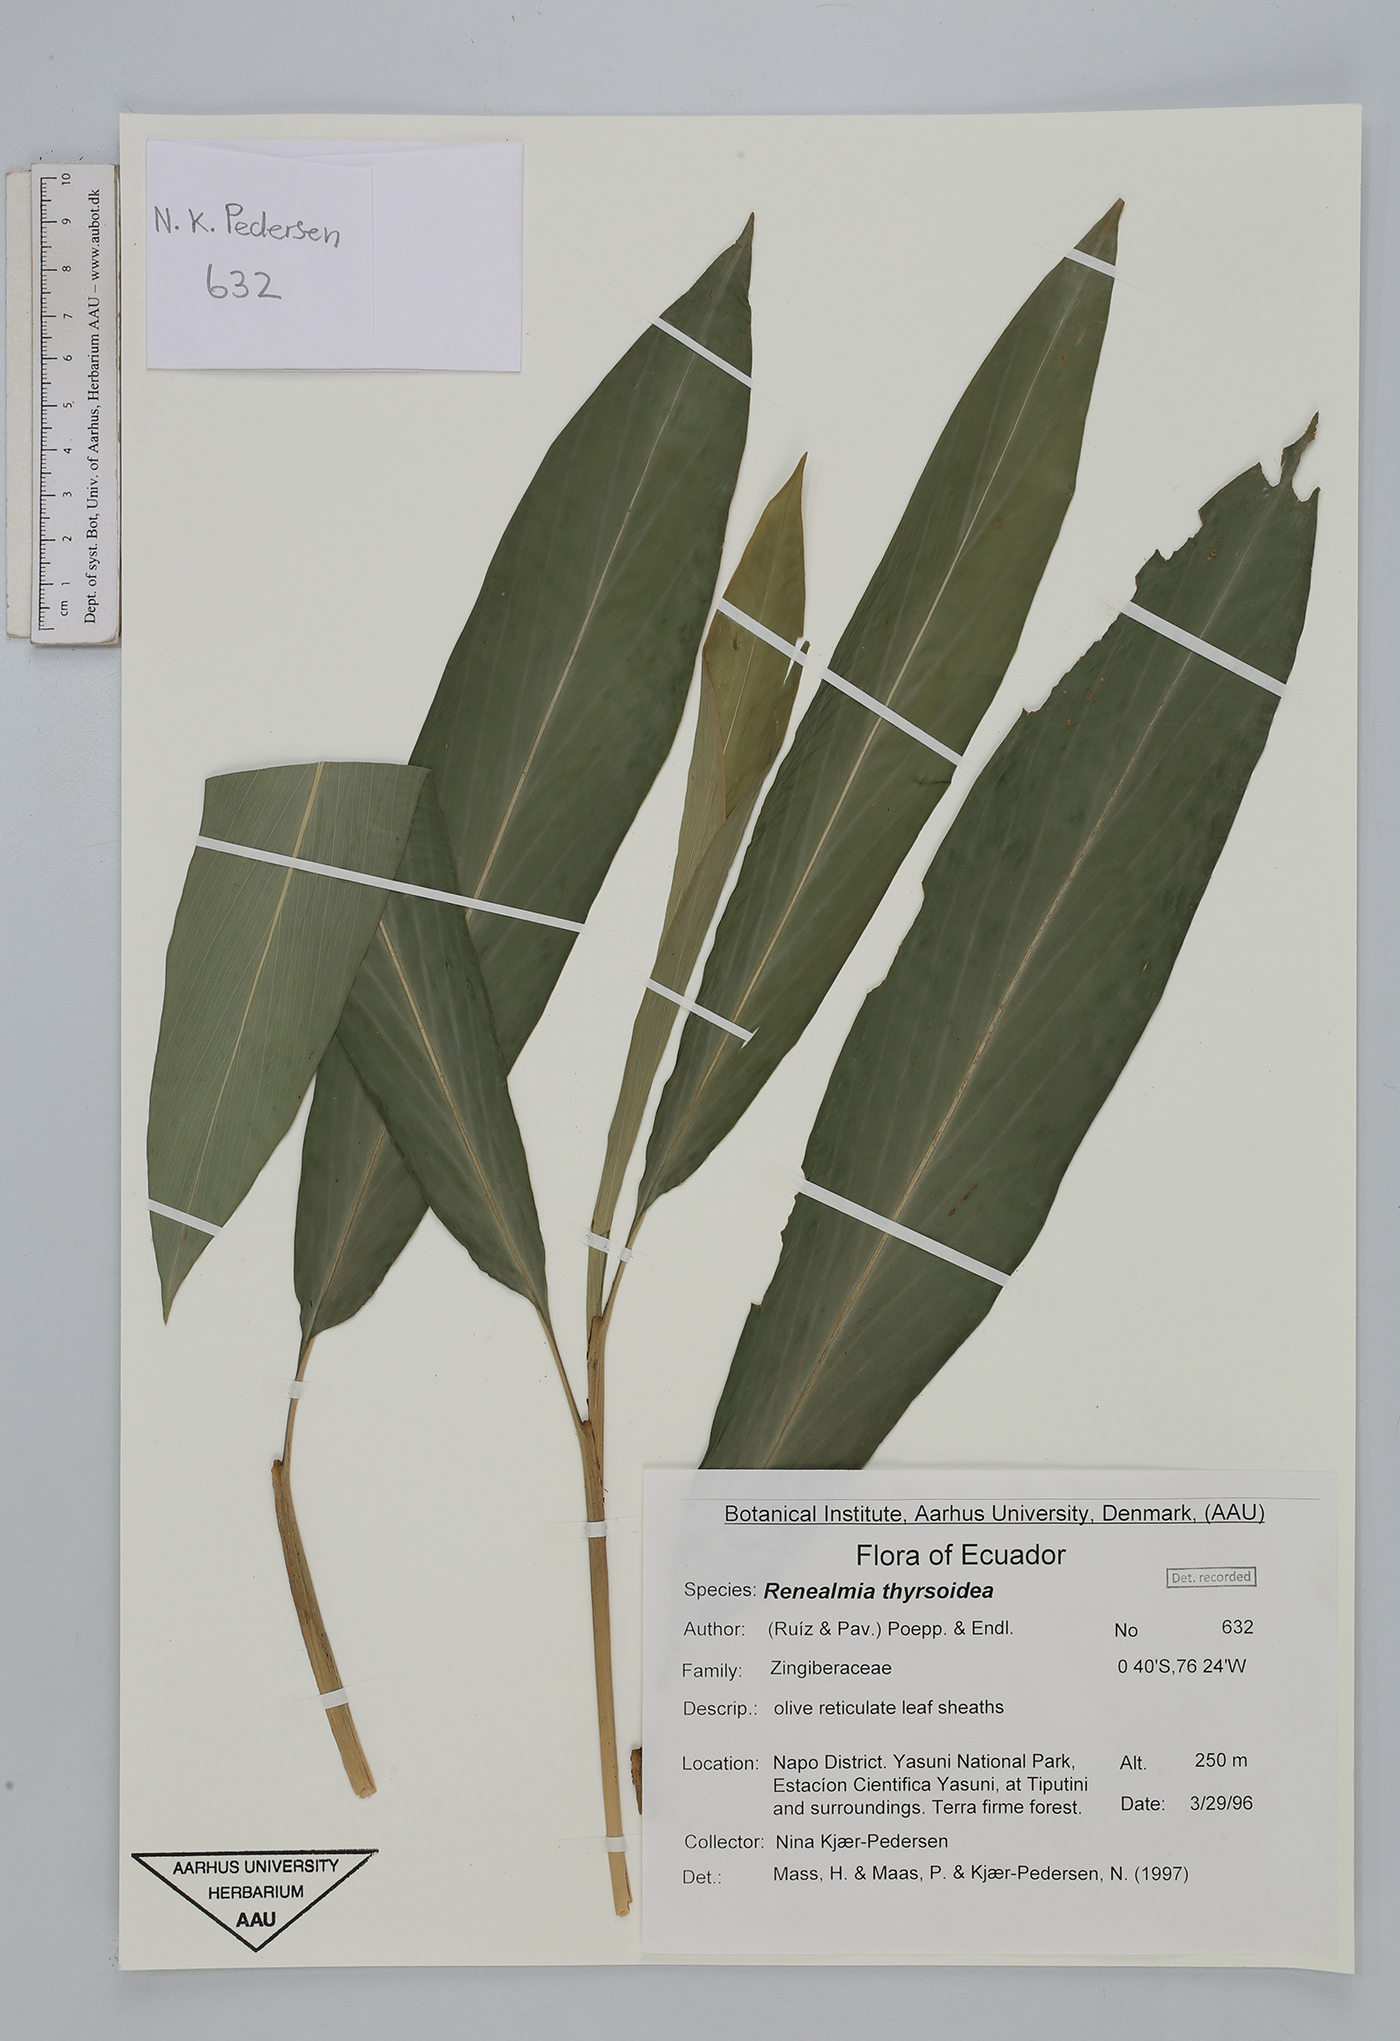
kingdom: Plantae
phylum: Tracheophyta
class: Liliopsida
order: Zingiberales
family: Zingiberaceae
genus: Renealmia
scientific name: Renealmia thyrsoidea
